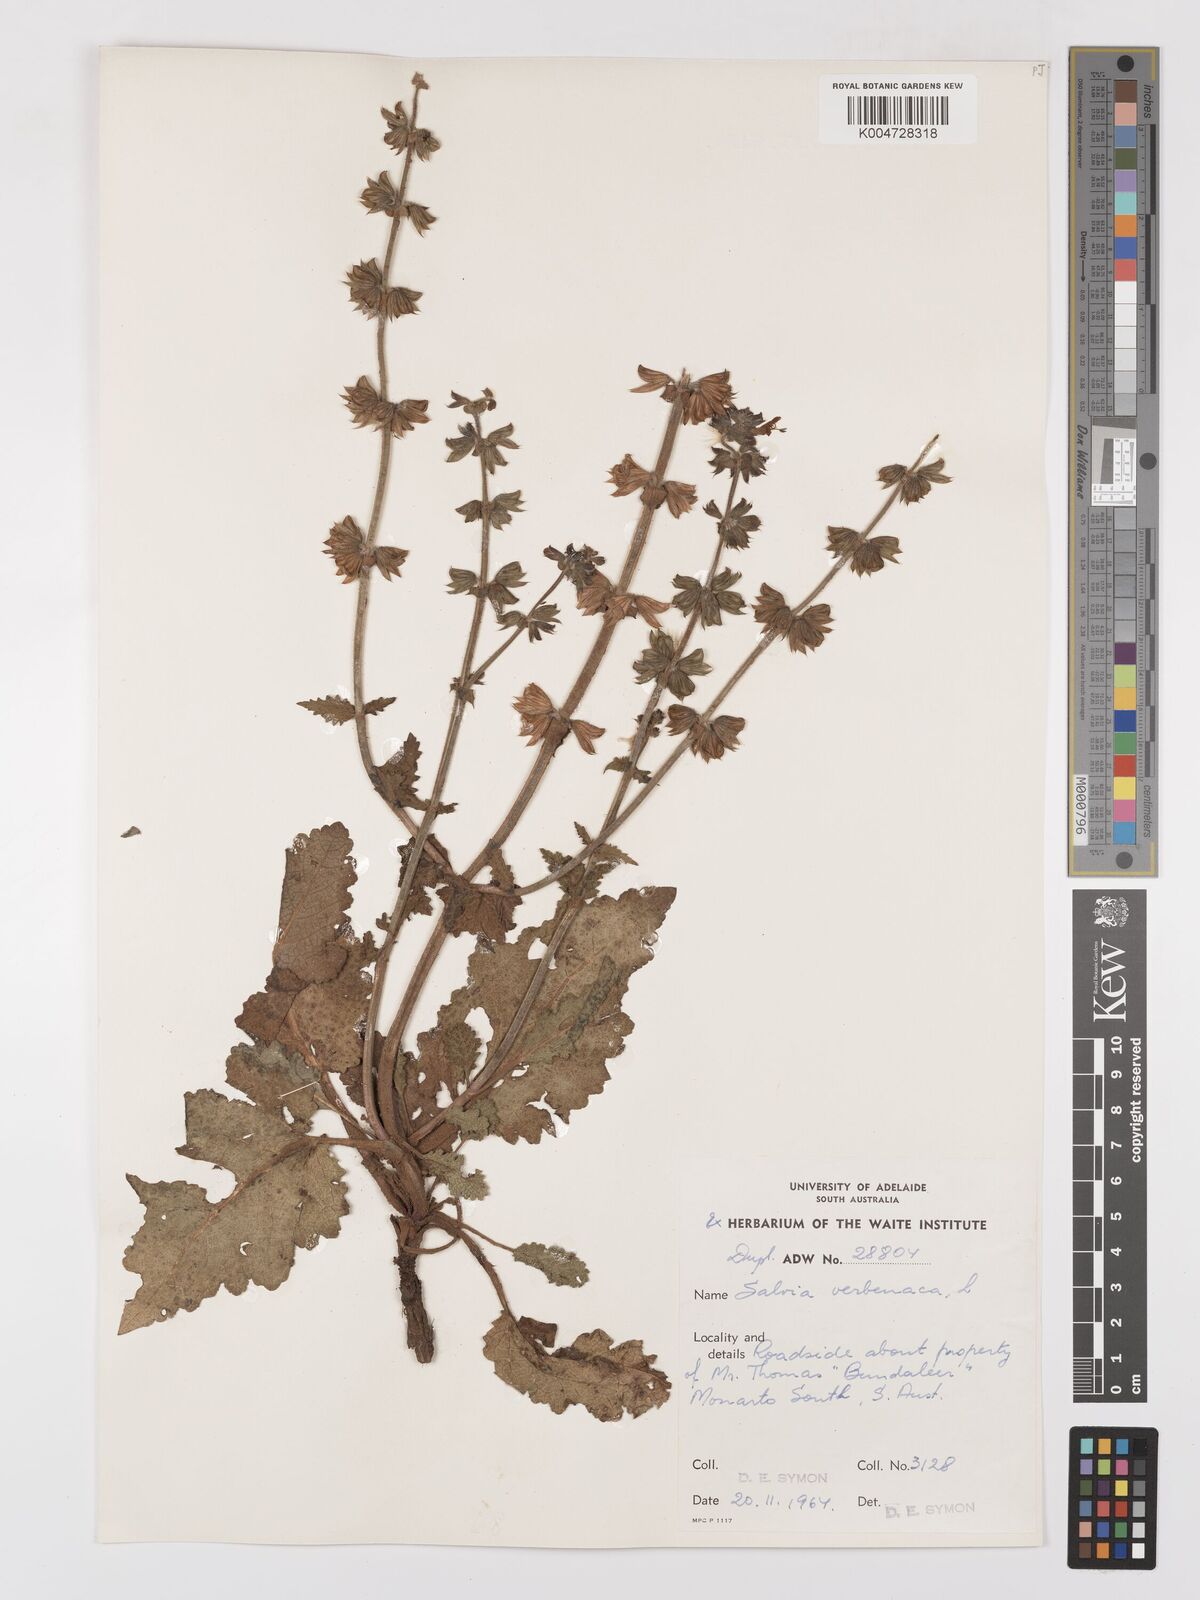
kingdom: Plantae
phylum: Tracheophyta
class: Magnoliopsida
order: Lamiales
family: Lamiaceae
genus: Salvia
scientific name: Salvia verbenaca
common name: Wild clary
